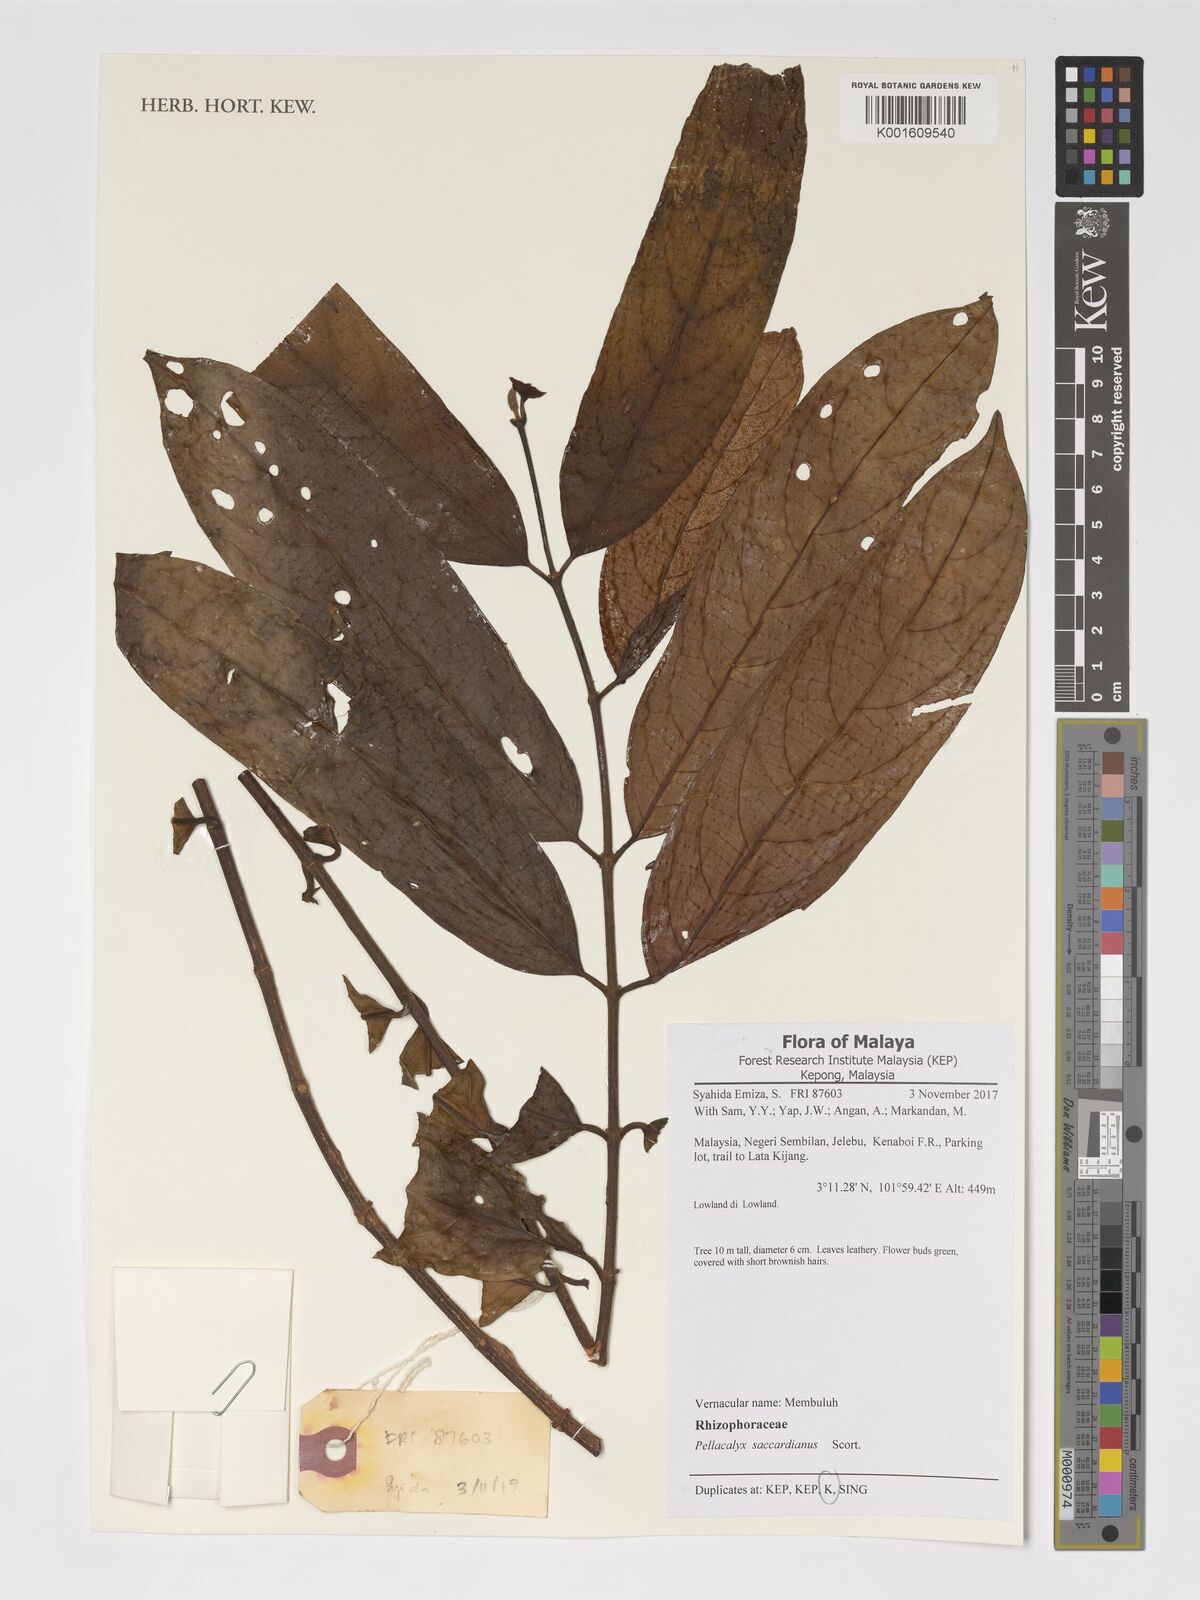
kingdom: Plantae
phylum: Tracheophyta
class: Magnoliopsida
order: Malpighiales
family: Rhizophoraceae
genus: Pellacalyx
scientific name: Pellacalyx saccardianus
